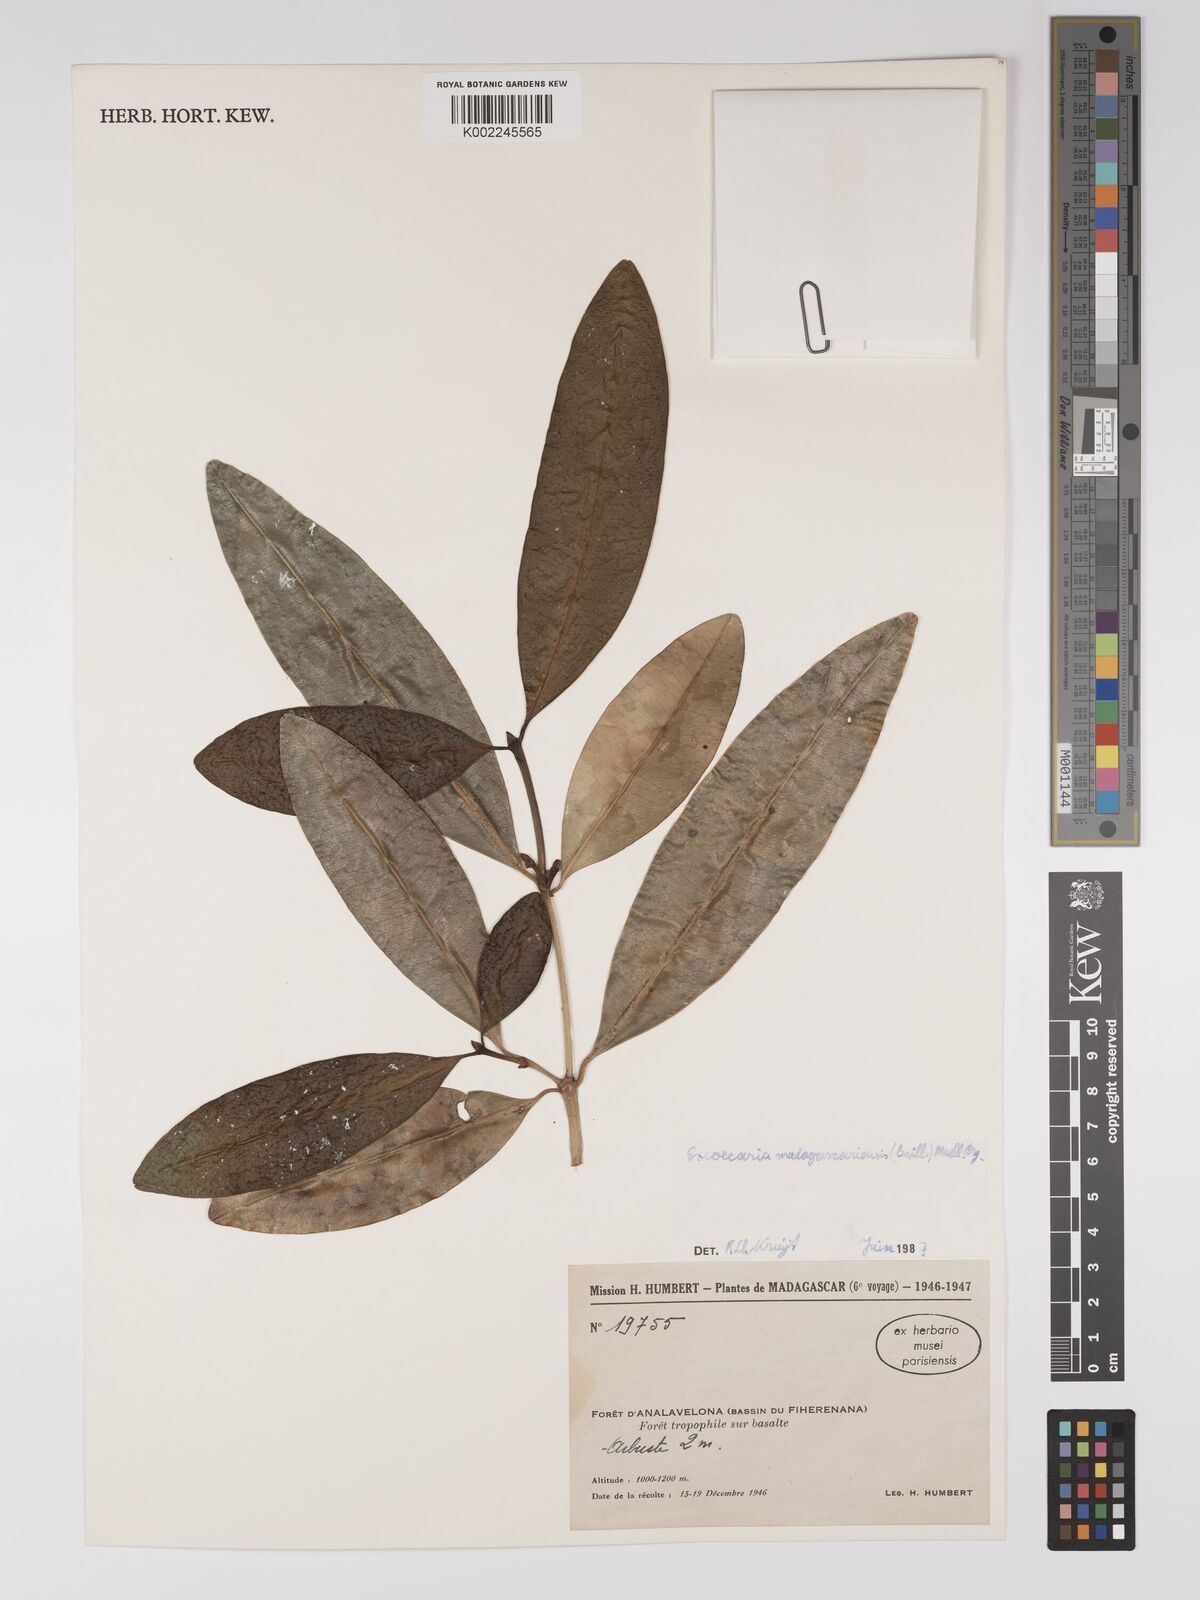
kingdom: Plantae
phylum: Tracheophyta
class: Magnoliopsida
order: Malpighiales
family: Euphorbiaceae
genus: Excoecaria
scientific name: Excoecaria madagascariensis
